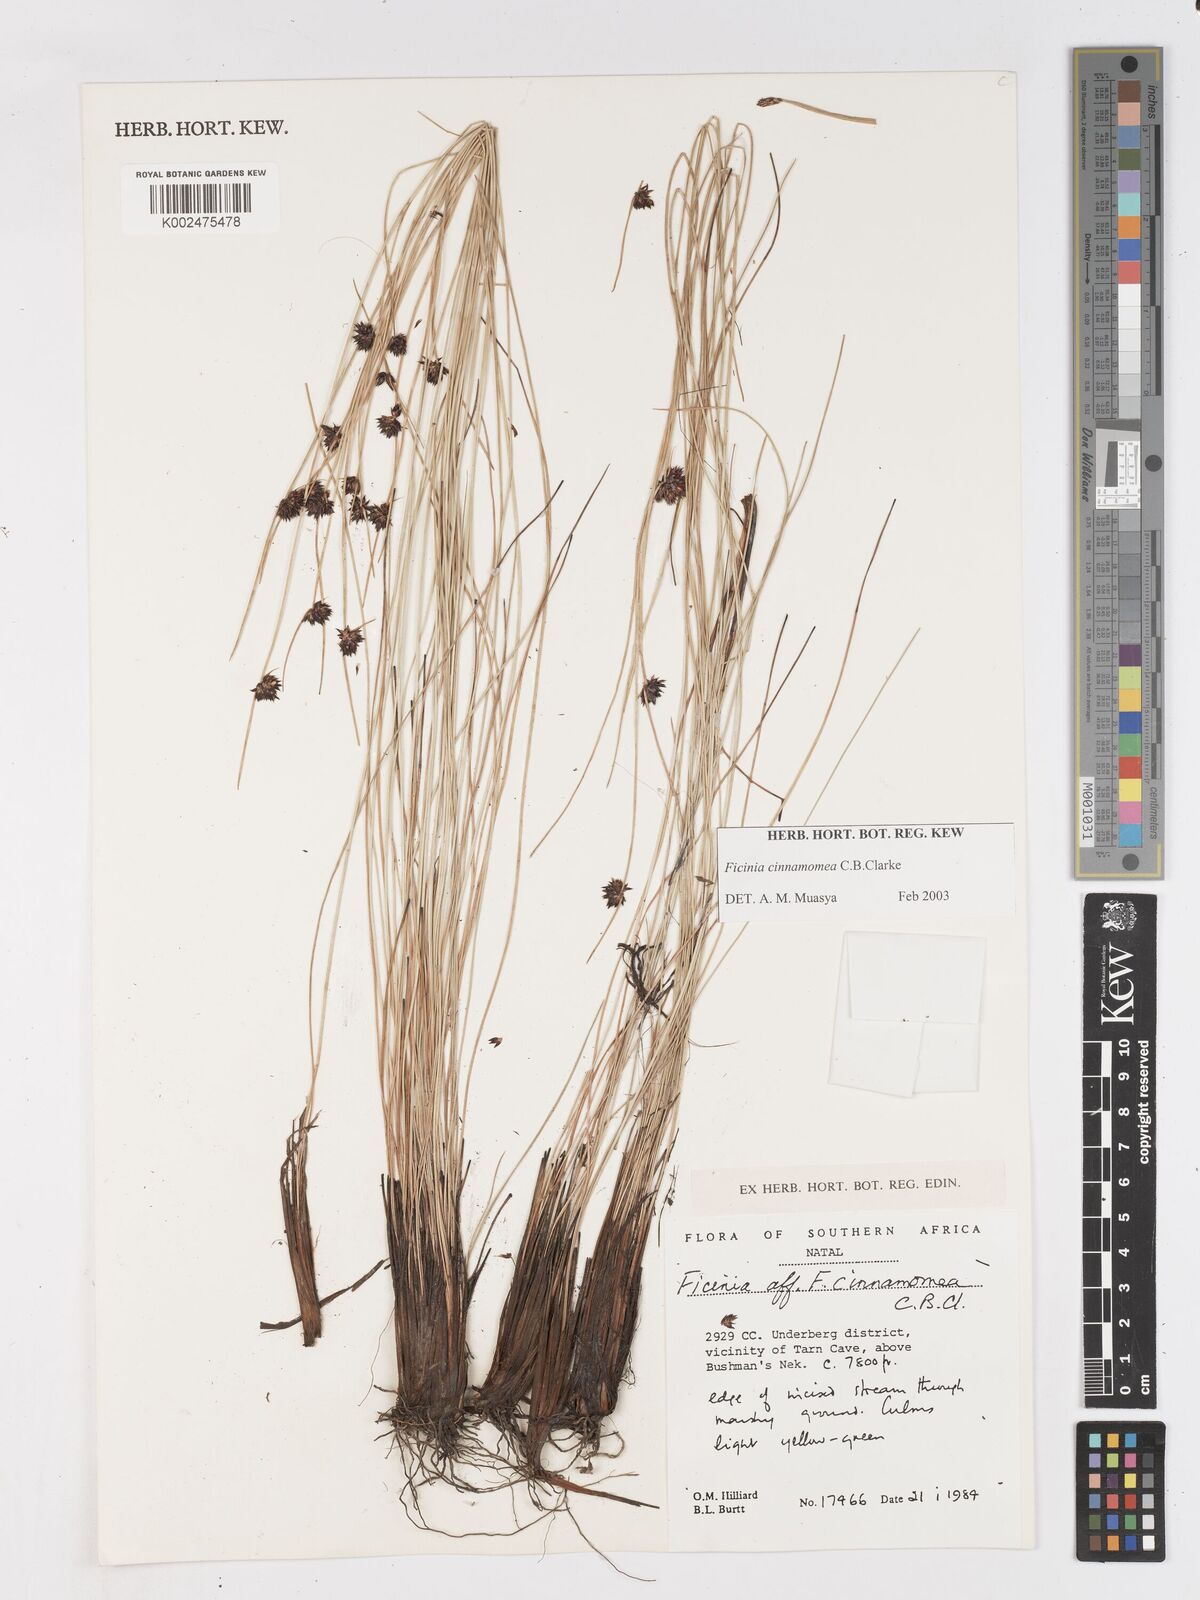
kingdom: Plantae
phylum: Tracheophyta
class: Liliopsida
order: Poales
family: Cyperaceae
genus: Ficinia
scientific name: Ficinia cinnamomea
